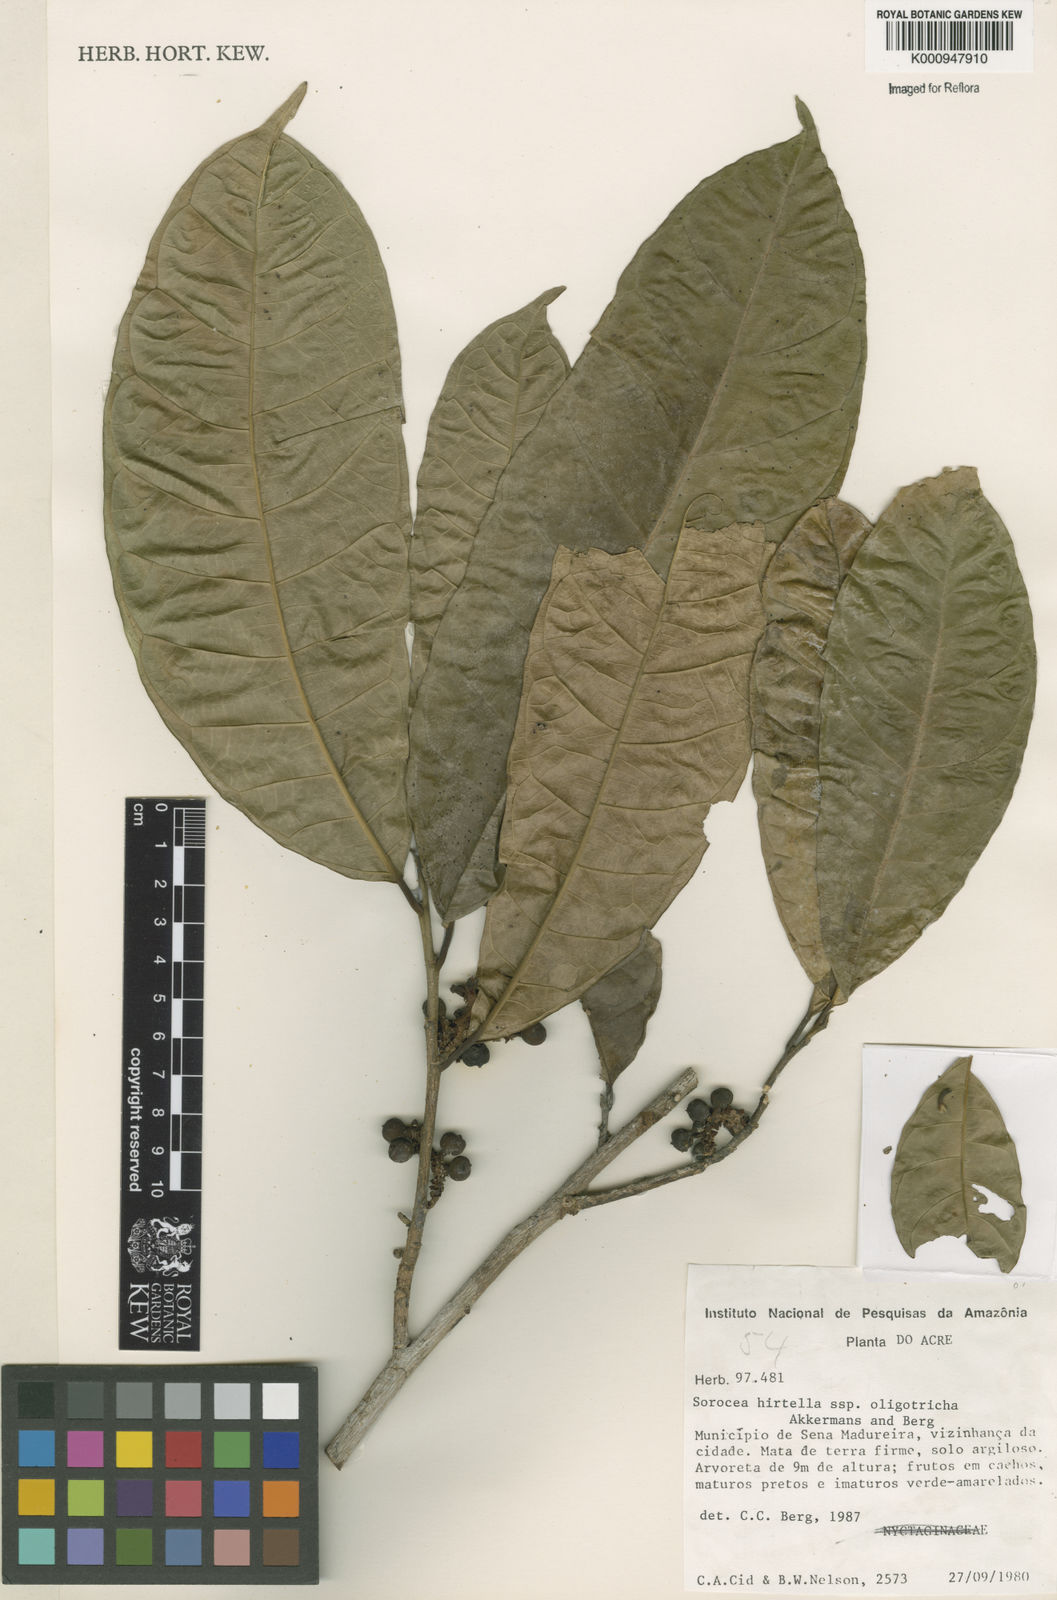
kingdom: Plantae
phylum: Tracheophyta
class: Magnoliopsida
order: Rosales
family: Moraceae
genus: Sorocea
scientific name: Sorocea pubivena
